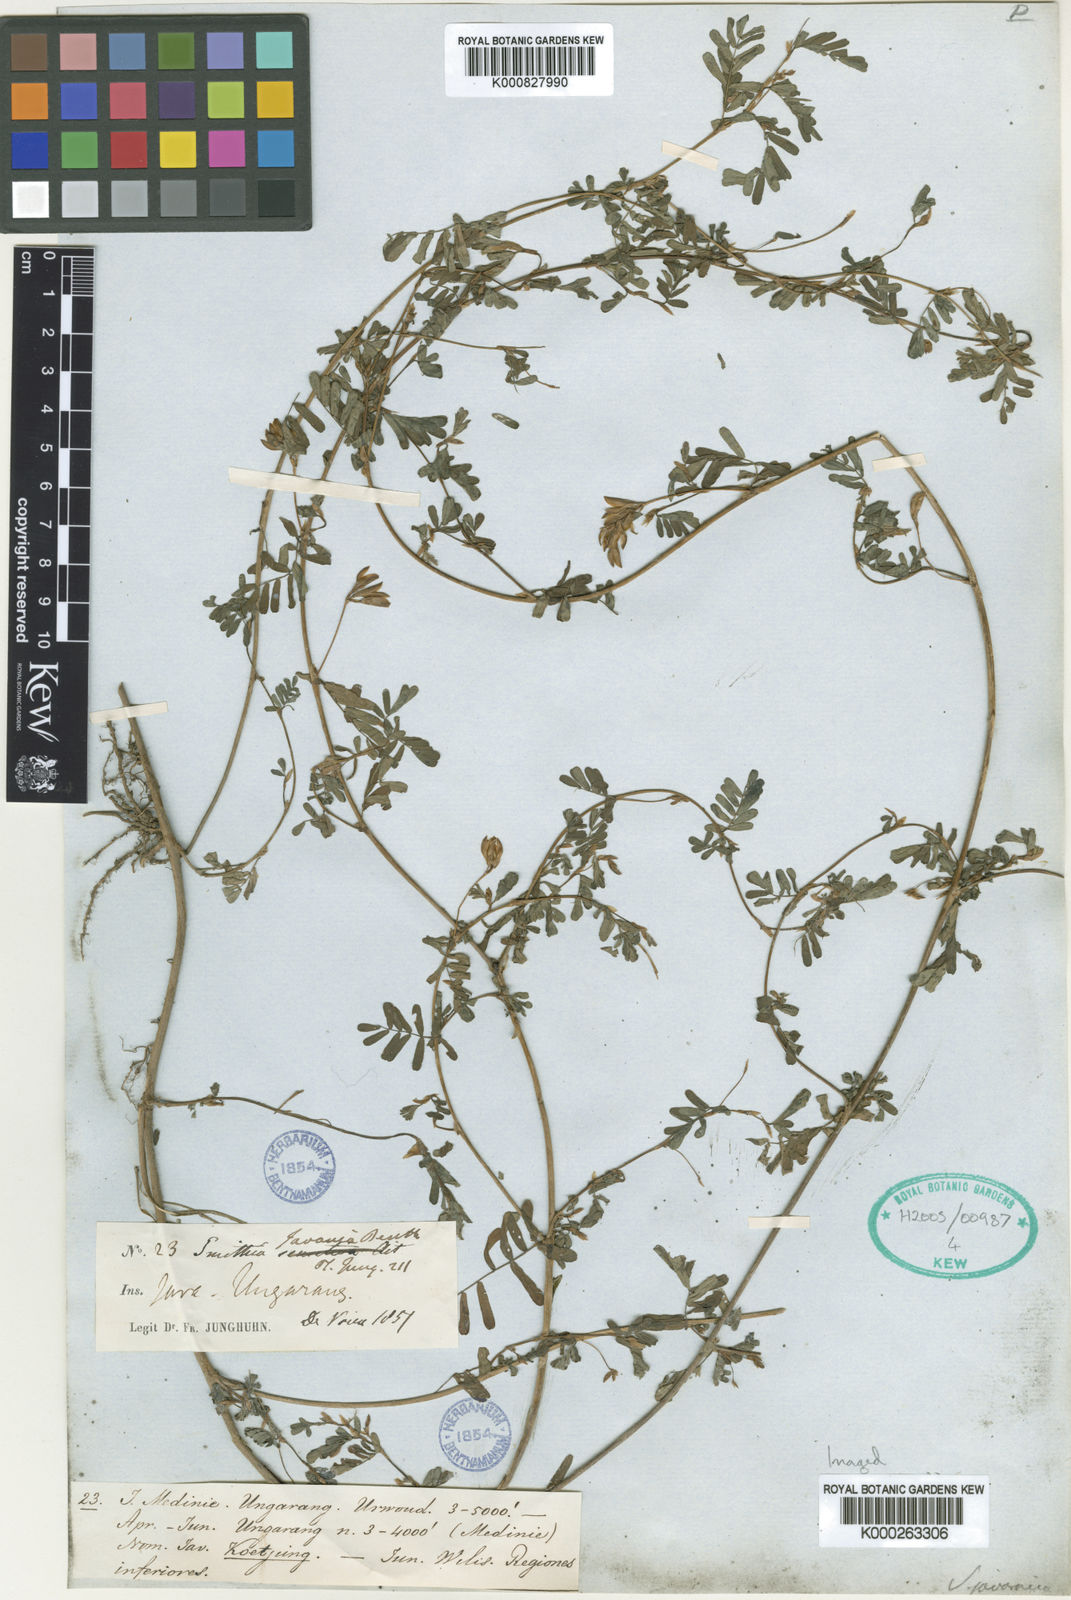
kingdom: Plantae
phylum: Tracheophyta
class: Magnoliopsida
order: Fabales
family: Fabaceae
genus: Smithia
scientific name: Smithia
